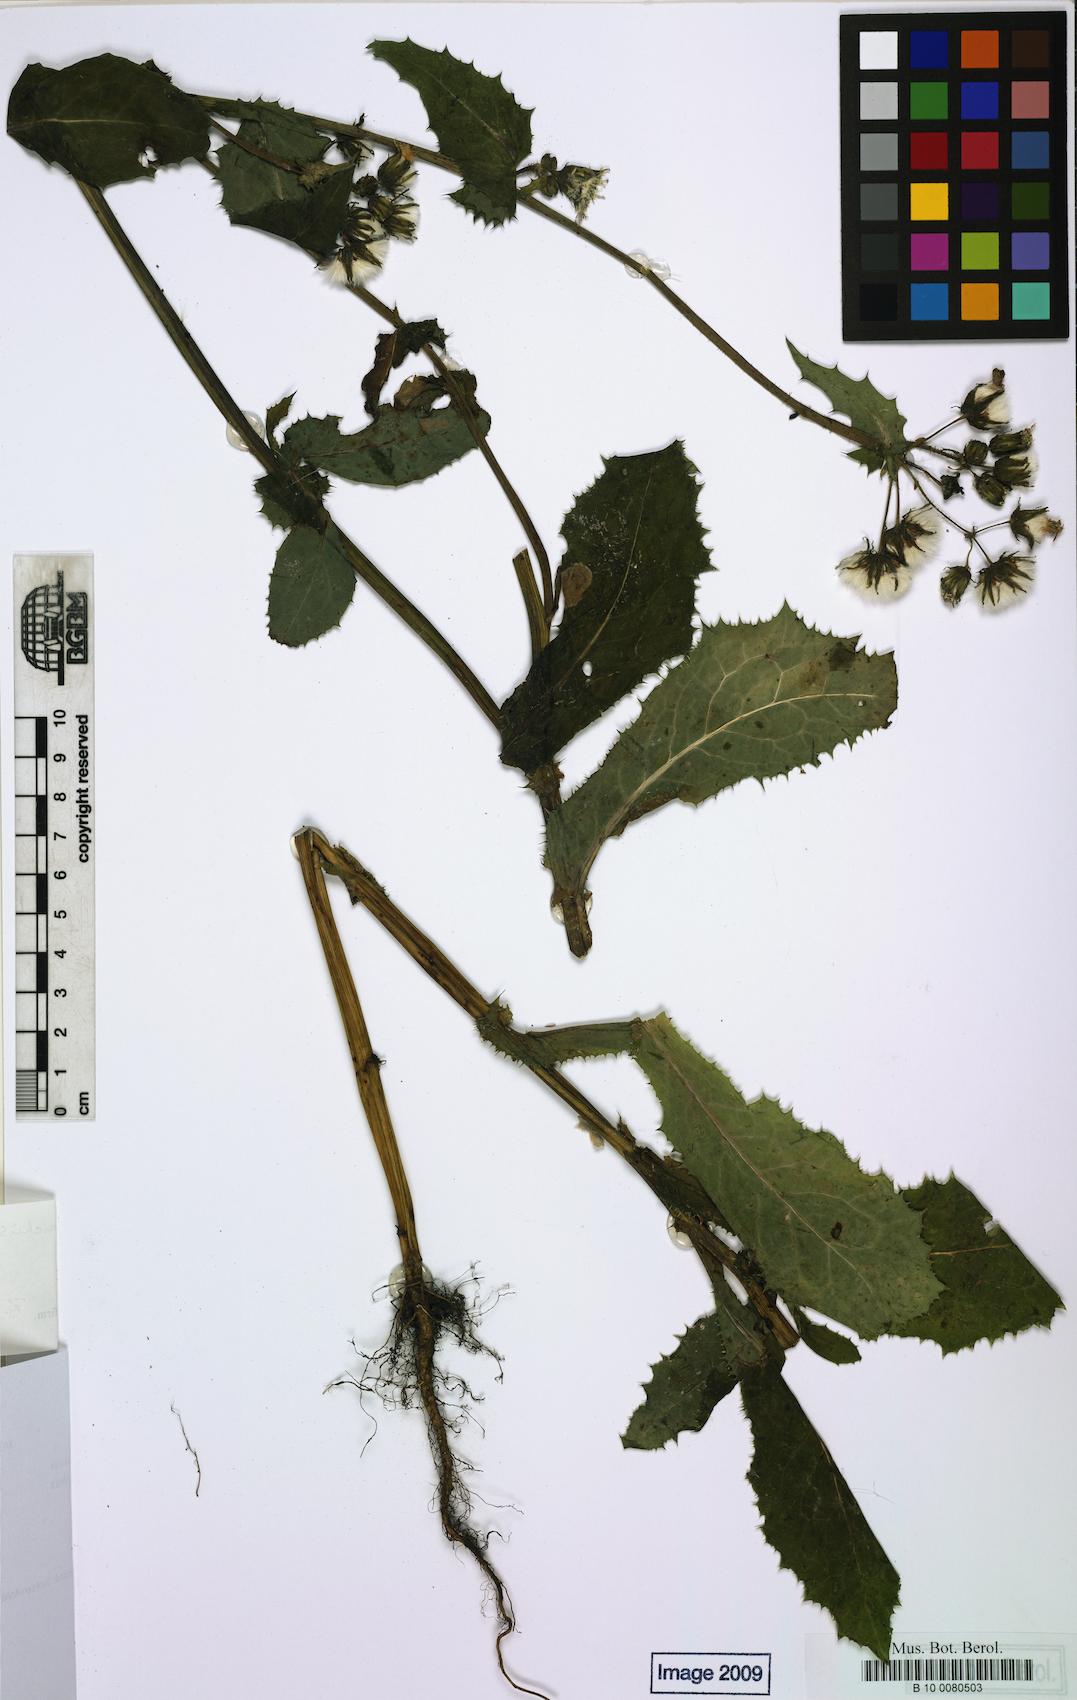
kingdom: Plantae
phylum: Tracheophyta
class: Magnoliopsida
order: Asterales
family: Asteraceae
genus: Sonchus
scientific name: Sonchus asper
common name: Prickly sow-thistle
